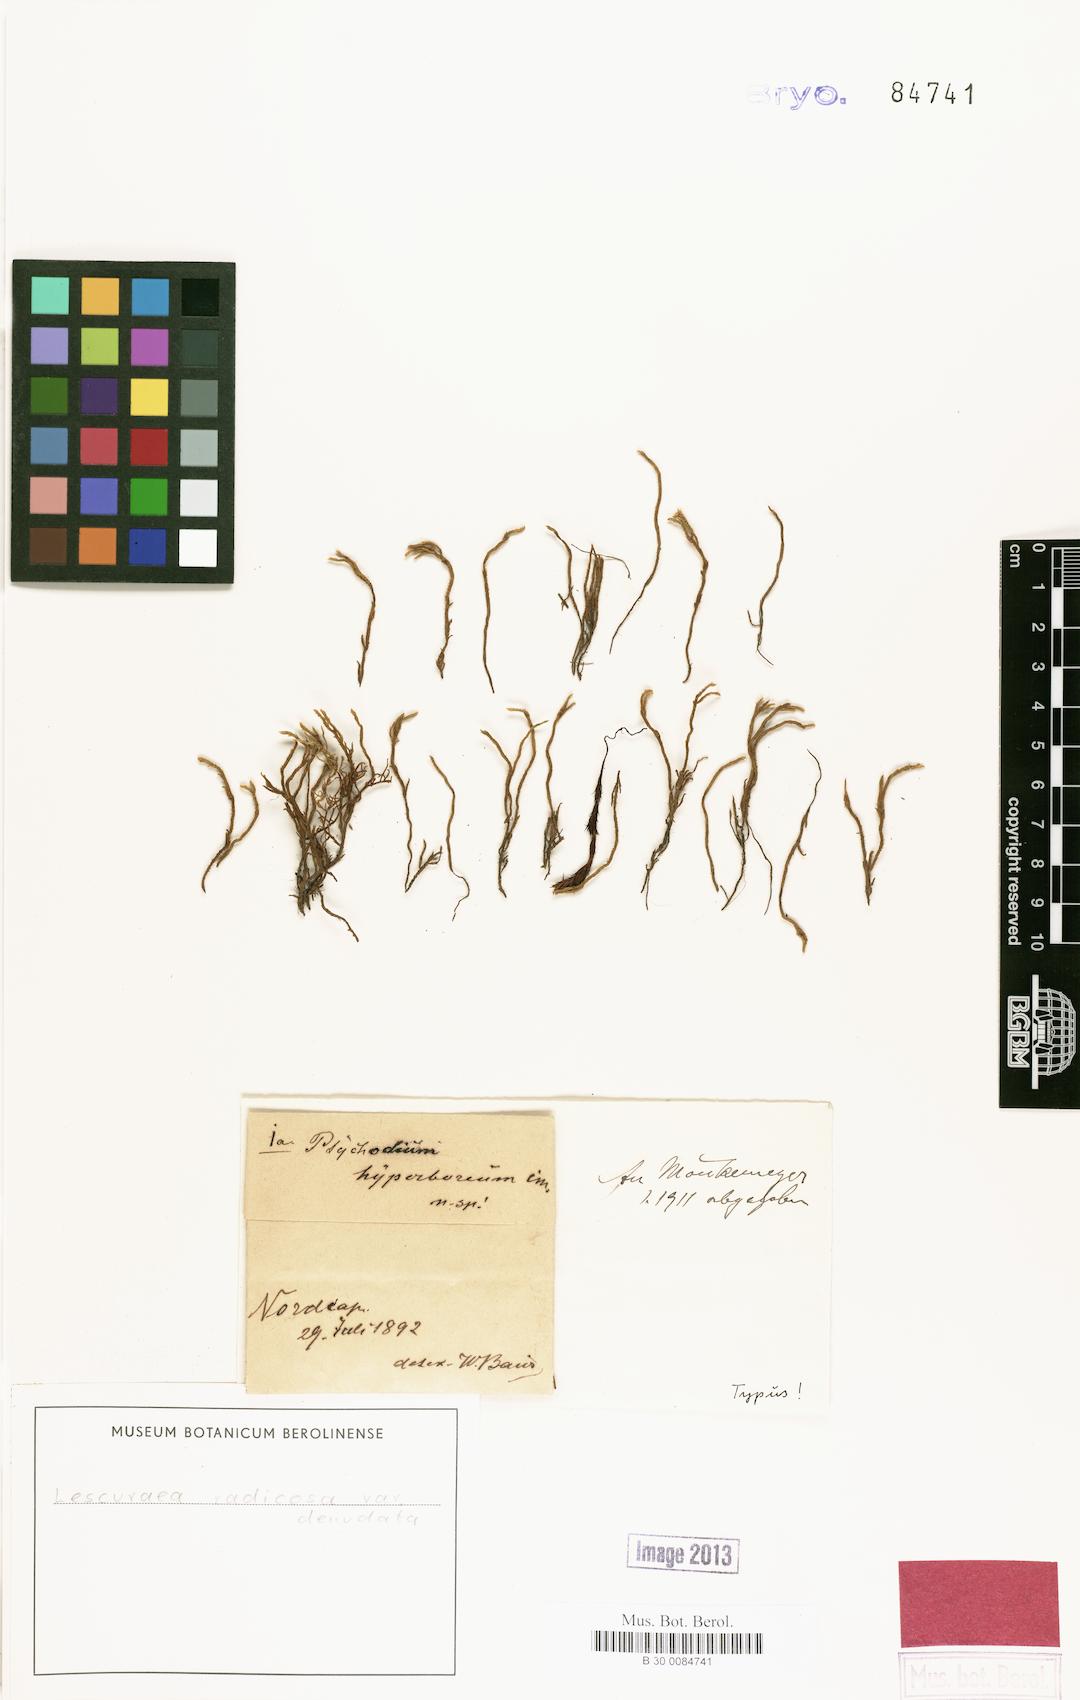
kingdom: Plantae
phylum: Bryophyta
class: Bryopsida
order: Hypnales
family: Pseudoleskeaceae
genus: Lescuraea
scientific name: Lescuraea radicosa
